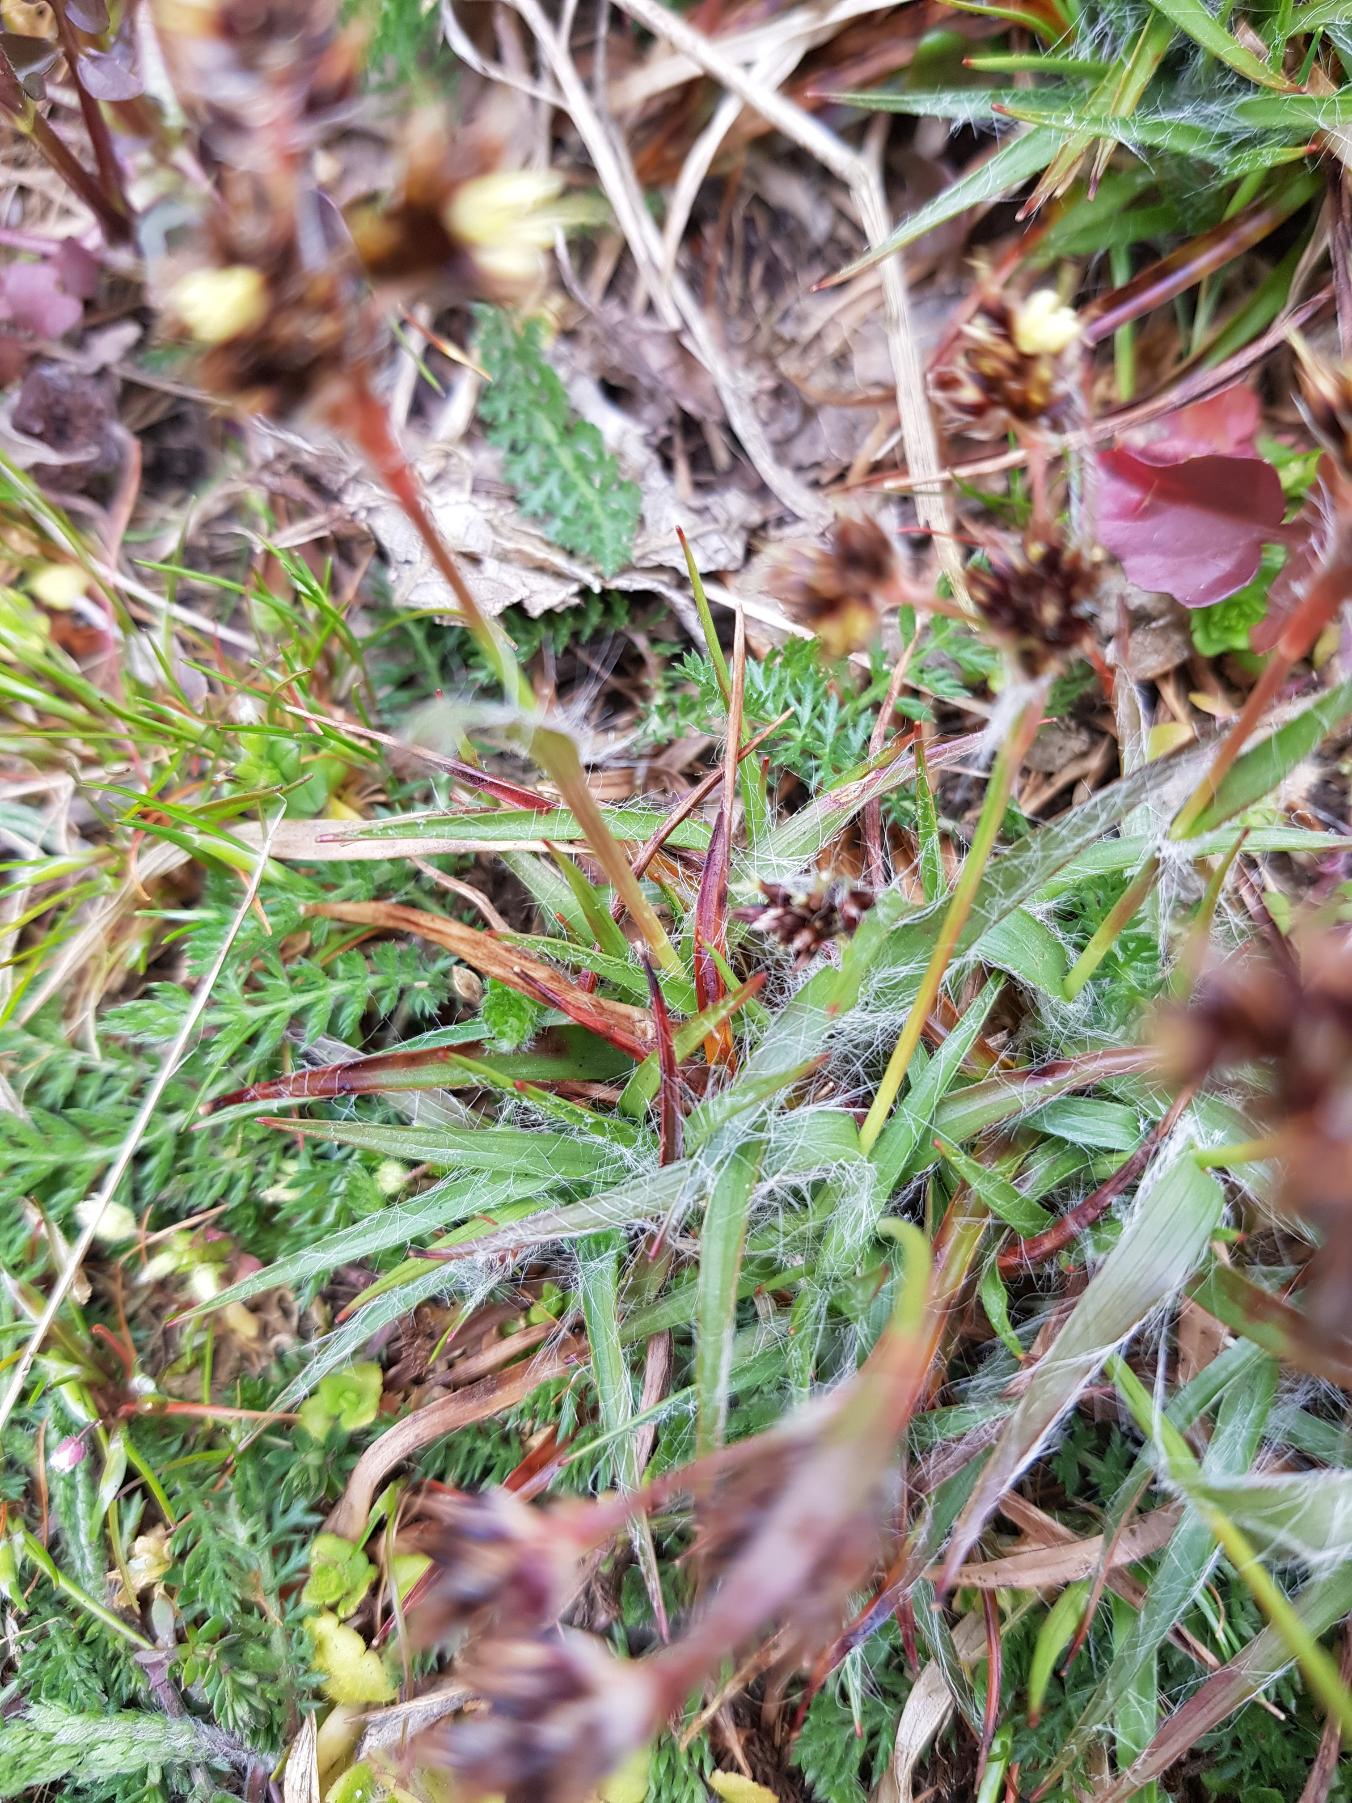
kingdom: Plantae
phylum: Tracheophyta
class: Liliopsida
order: Poales
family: Juncaceae
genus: Luzula
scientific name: Luzula campestris
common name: Mark-frytle
